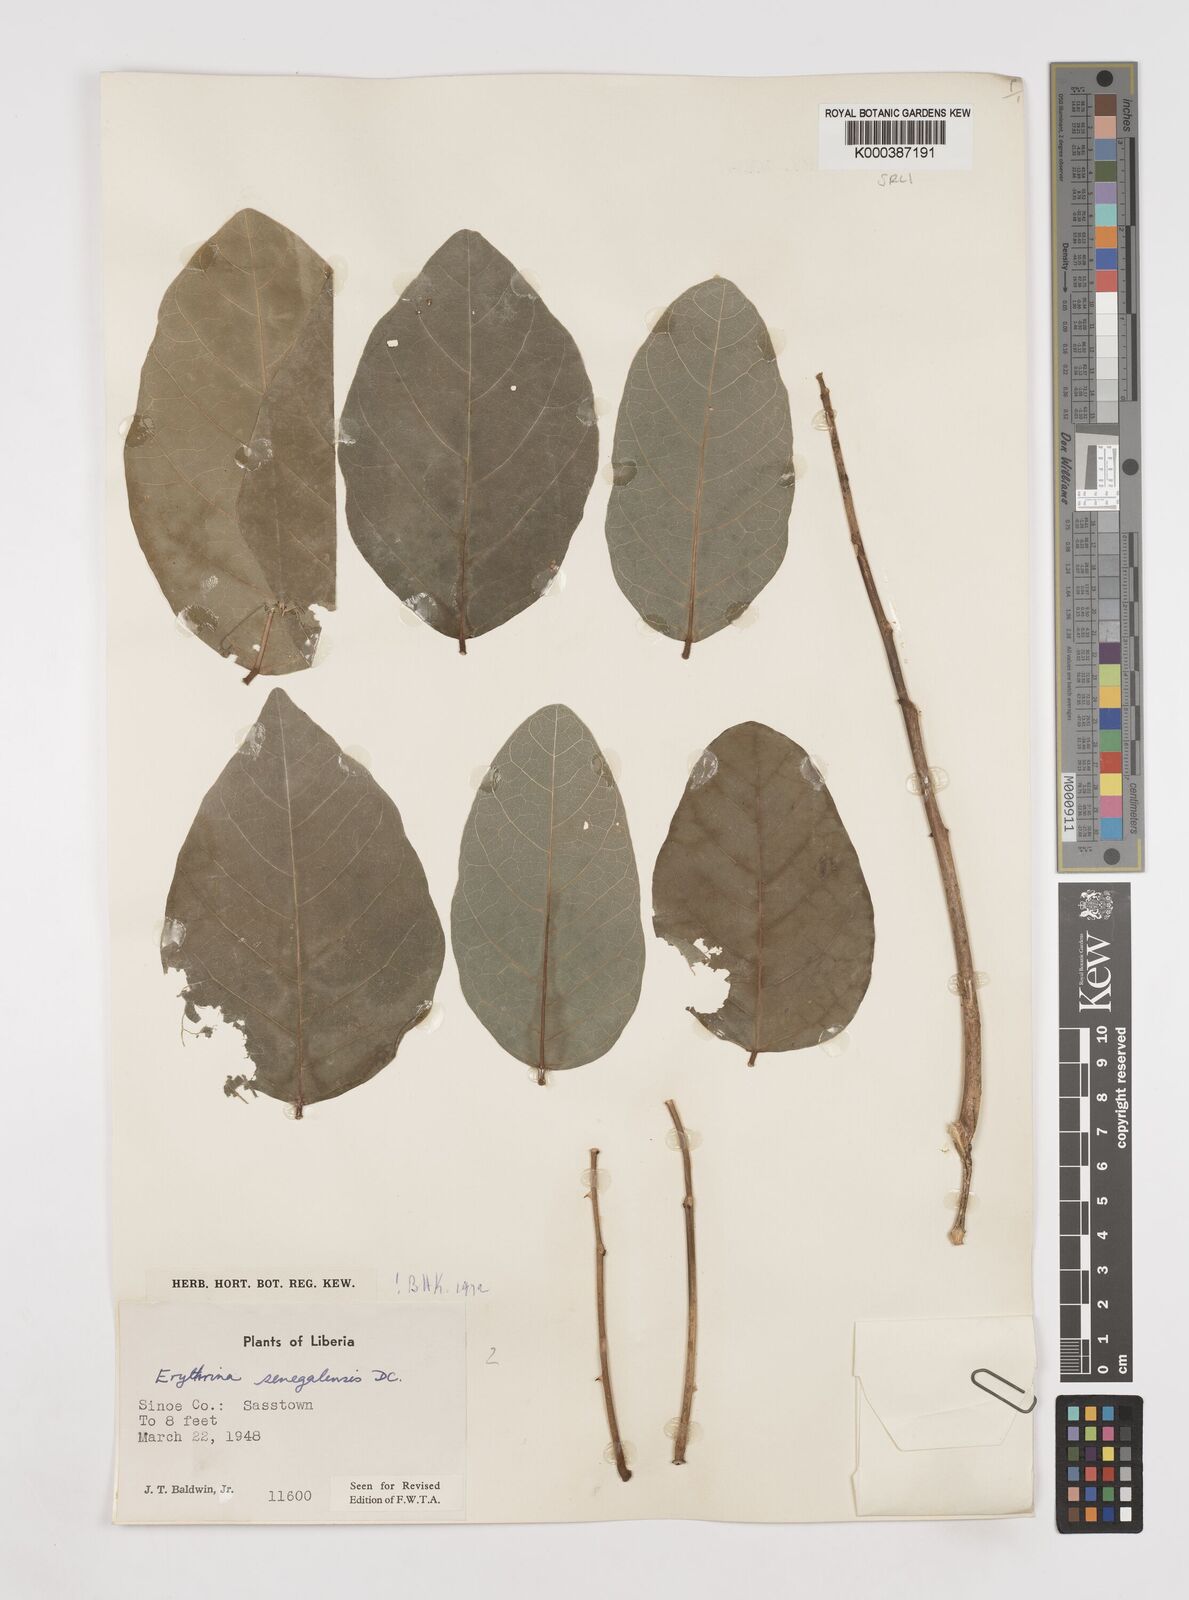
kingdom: Plantae
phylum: Tracheophyta
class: Magnoliopsida
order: Fabales
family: Fabaceae
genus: Erythrina
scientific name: Erythrina senegalensis
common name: Senegal coraltree
